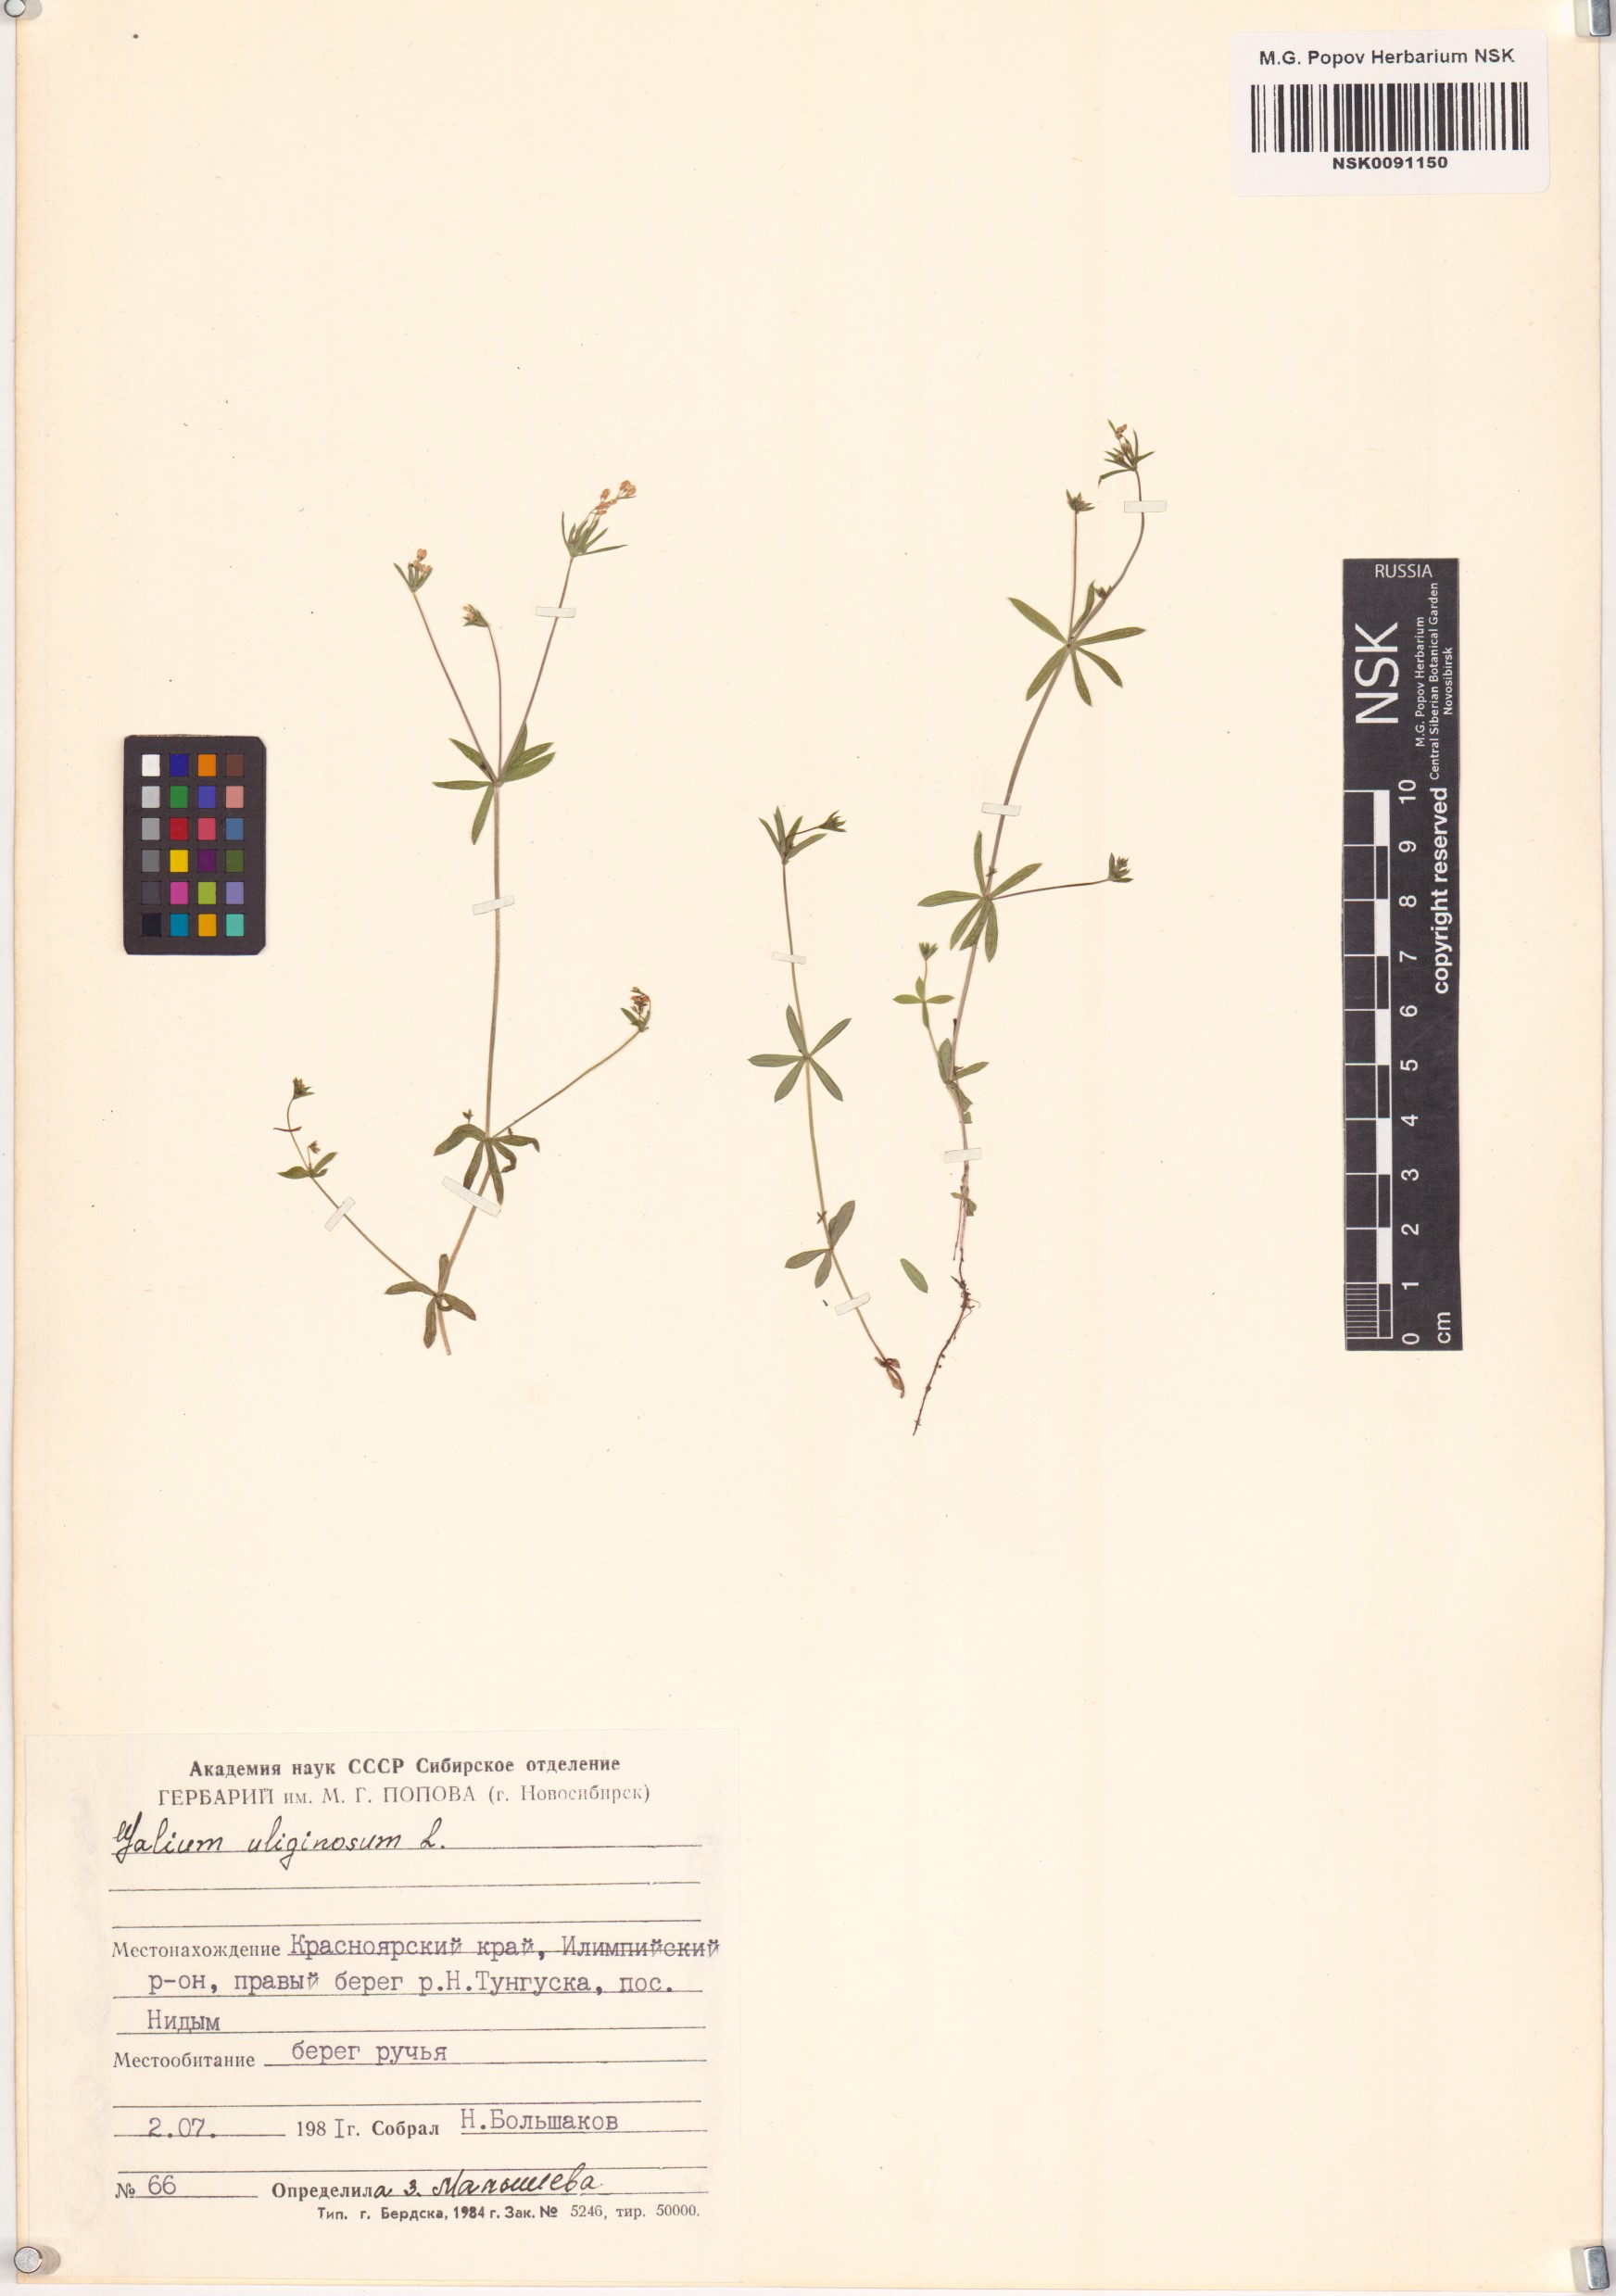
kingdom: Plantae
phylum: Tracheophyta
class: Magnoliopsida
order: Gentianales
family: Rubiaceae
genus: Galium
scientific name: Galium uliginosum
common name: Fen bedstraw
